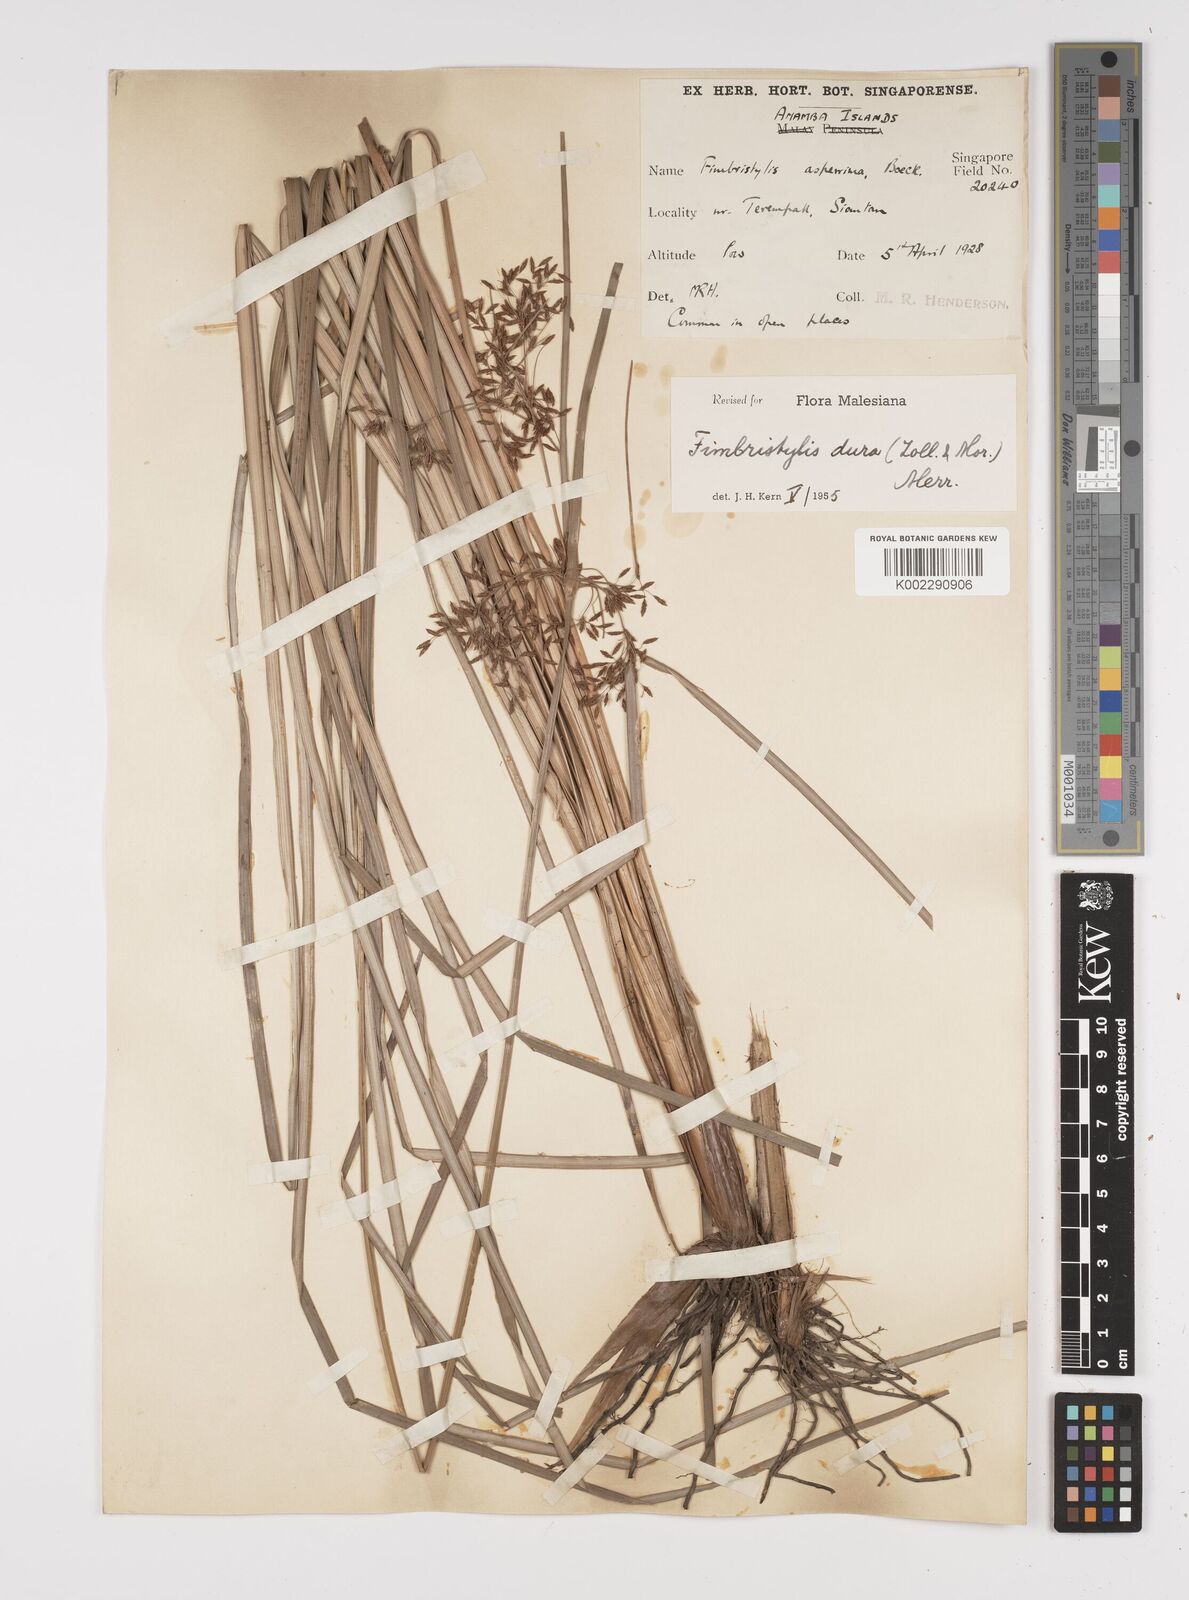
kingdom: Plantae
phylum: Tracheophyta
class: Liliopsida
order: Poales
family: Cyperaceae
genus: Fimbristylis
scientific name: Fimbristylis dura
